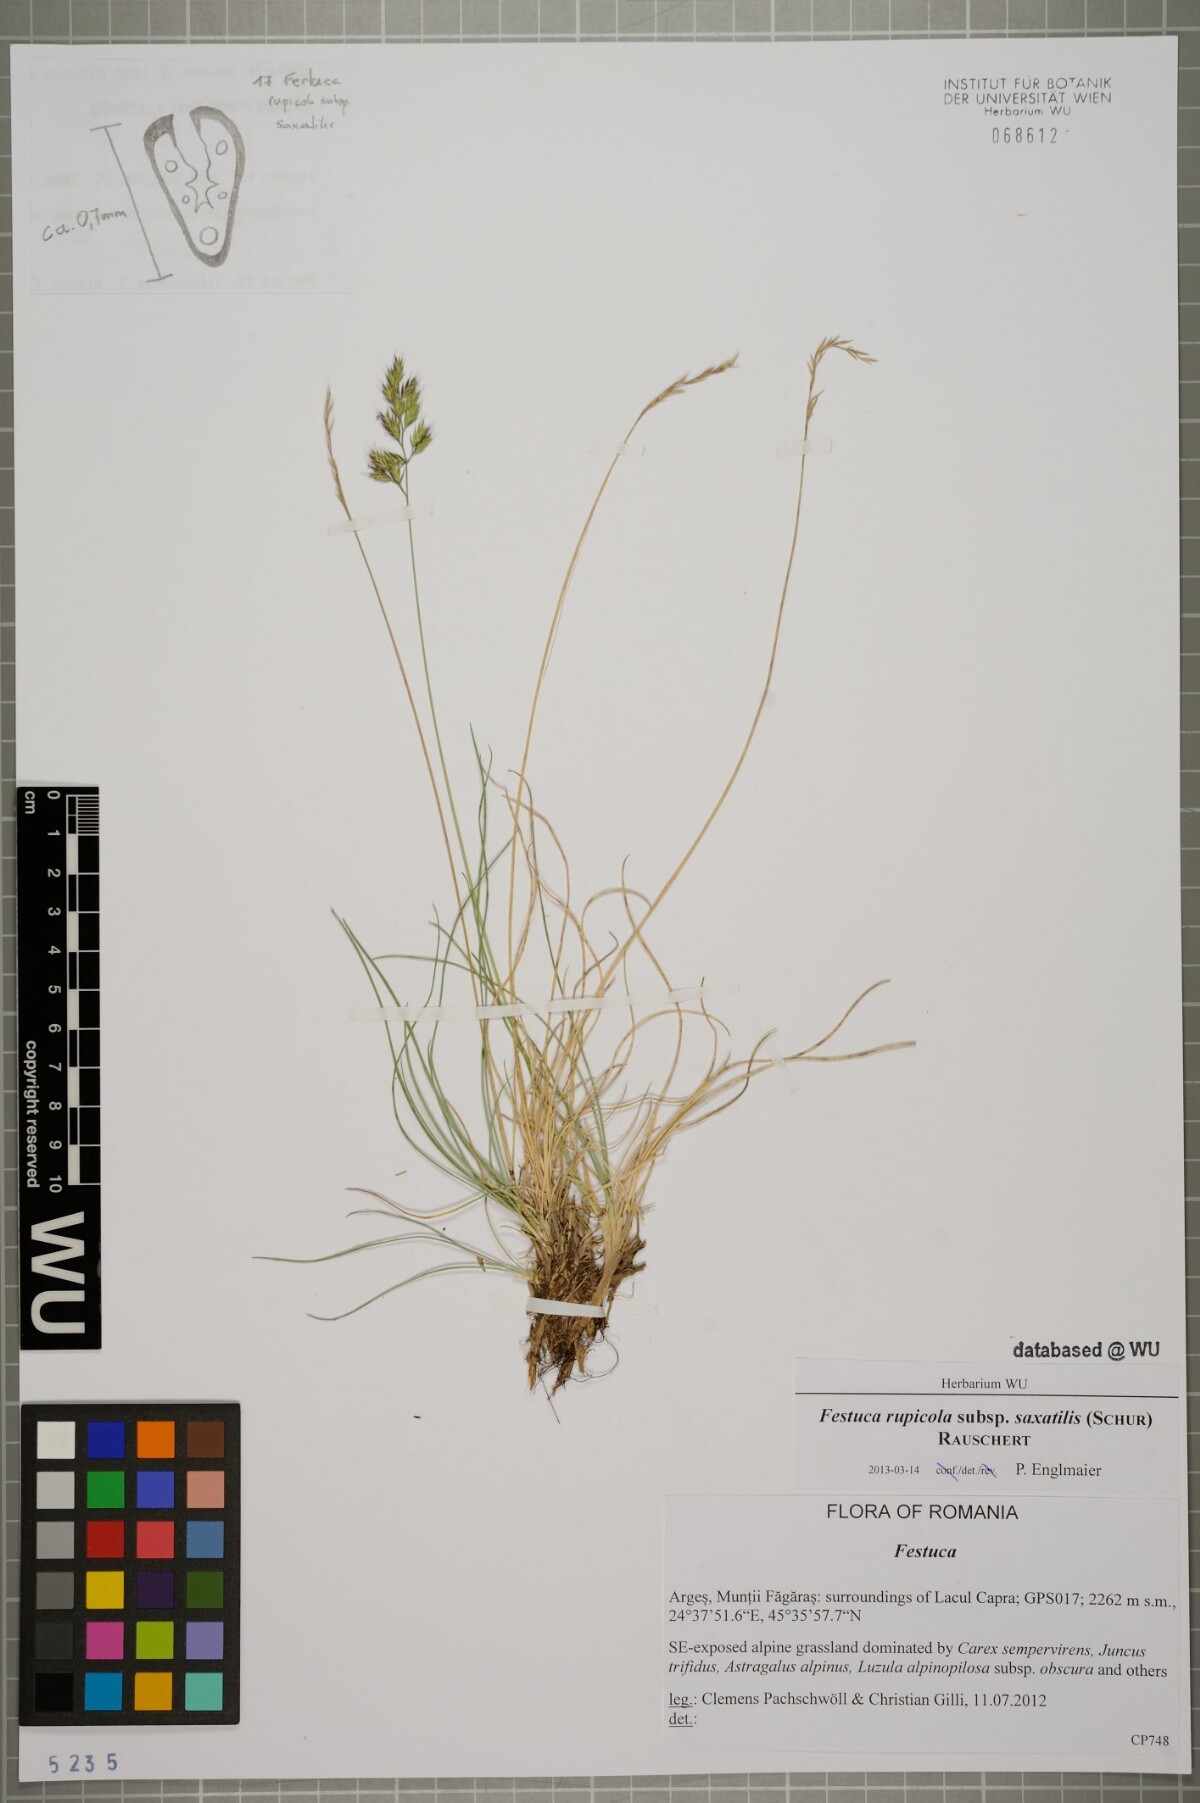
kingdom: Plantae
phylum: Tracheophyta
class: Liliopsida
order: Poales
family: Poaceae
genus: Festuca
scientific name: Festuca saxatilis
